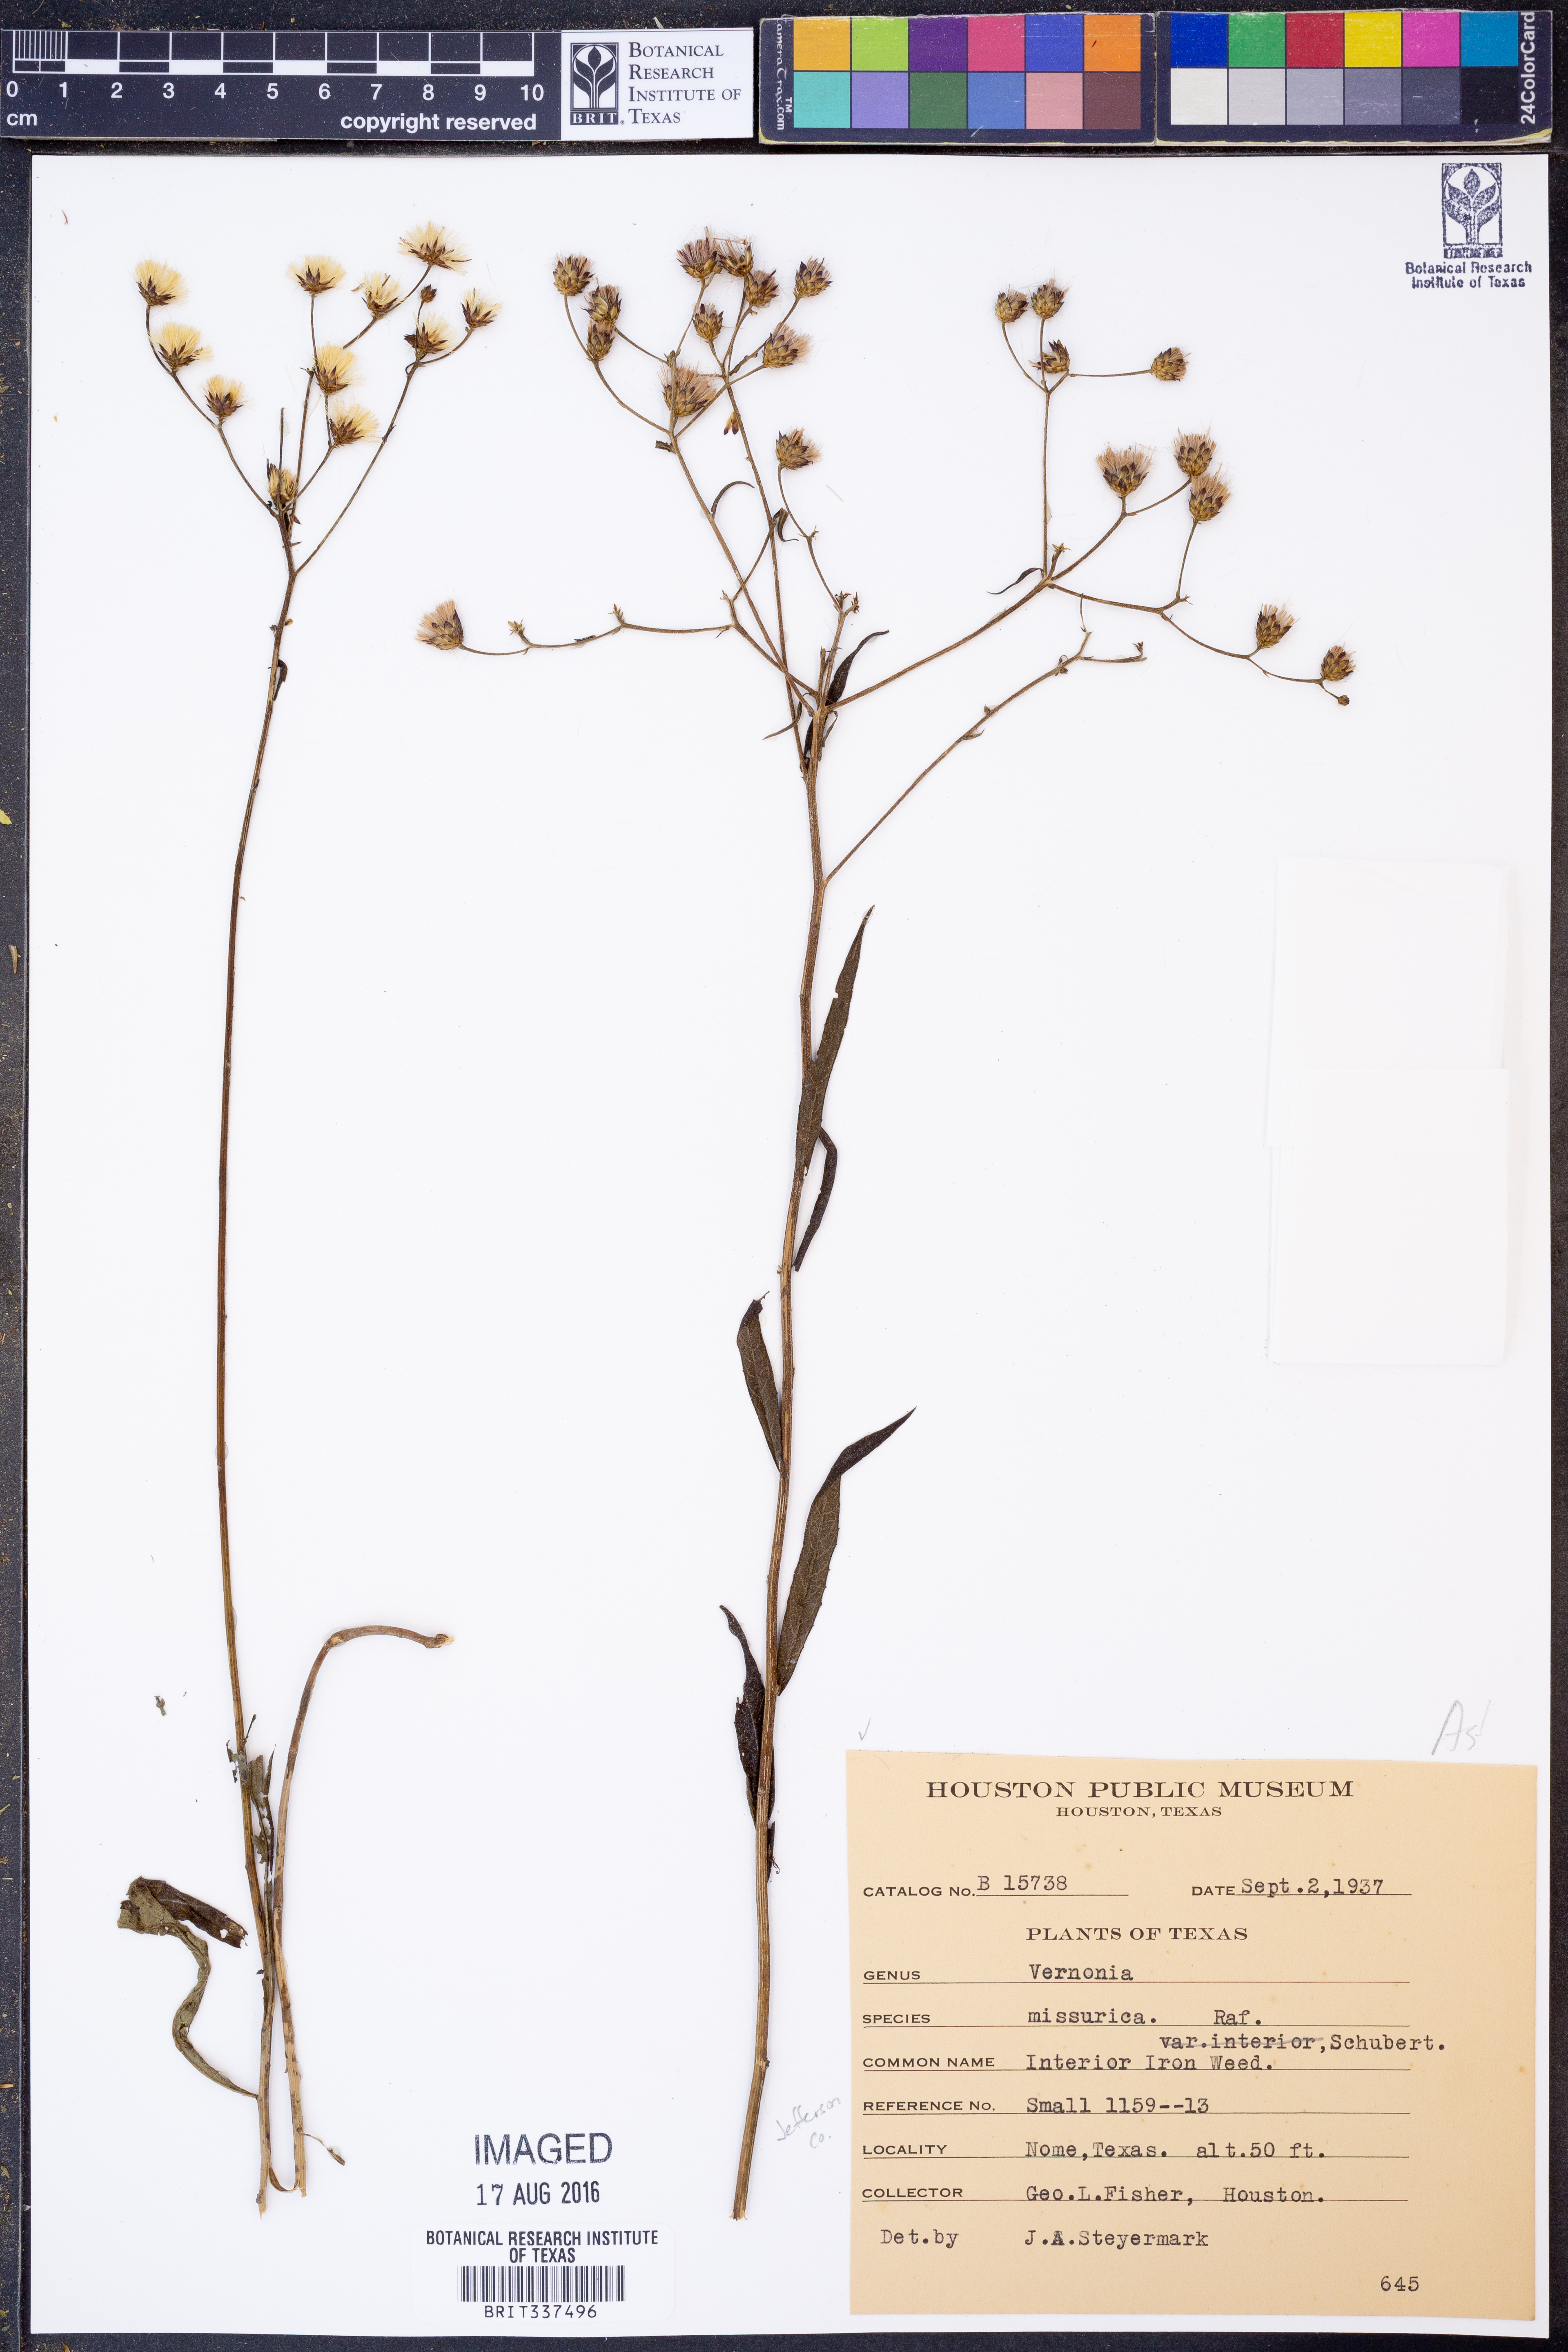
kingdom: Plantae
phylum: Tracheophyta
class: Magnoliopsida
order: Asterales
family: Asteraceae
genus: Vernonia
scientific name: Vernonia missurica
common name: Missouri ironweed
